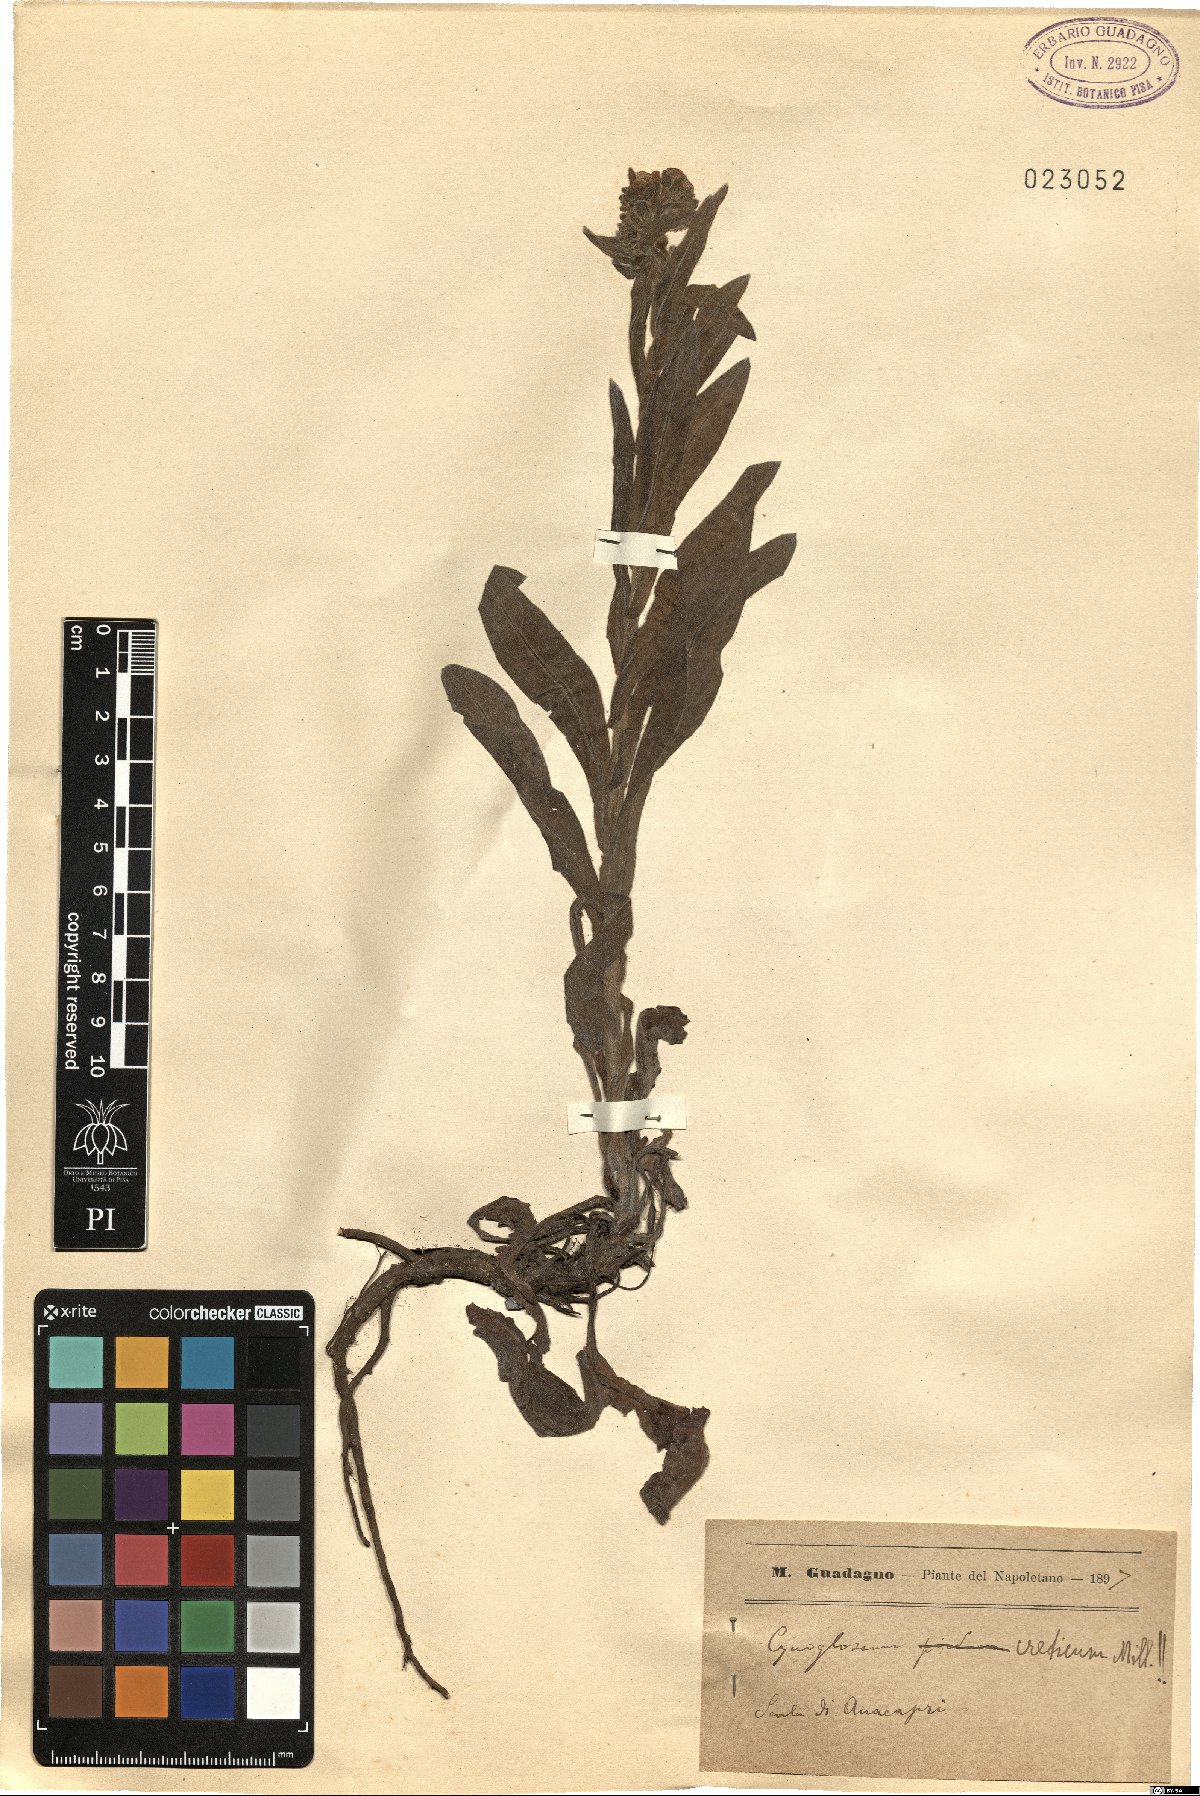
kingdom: Plantae
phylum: Tracheophyta
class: Magnoliopsida
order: Boraginales
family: Boraginaceae
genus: Cynoglossum
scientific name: Cynoglossum creticum
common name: Blue hound's tongue
